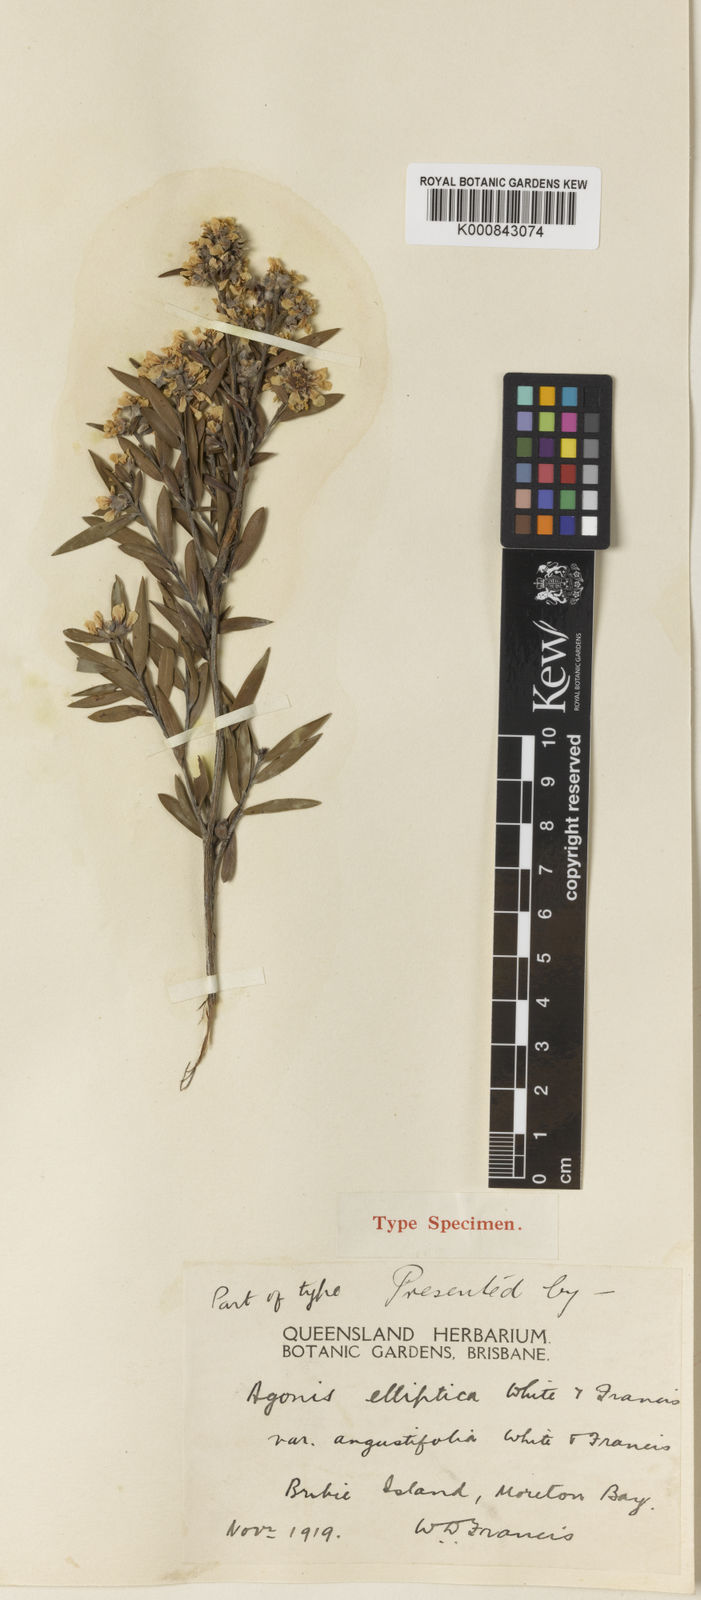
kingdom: Plantae
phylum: Tracheophyta
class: Magnoliopsida
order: Myrtales
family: Myrtaceae
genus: Leptospermum
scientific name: Leptospermum whitei
